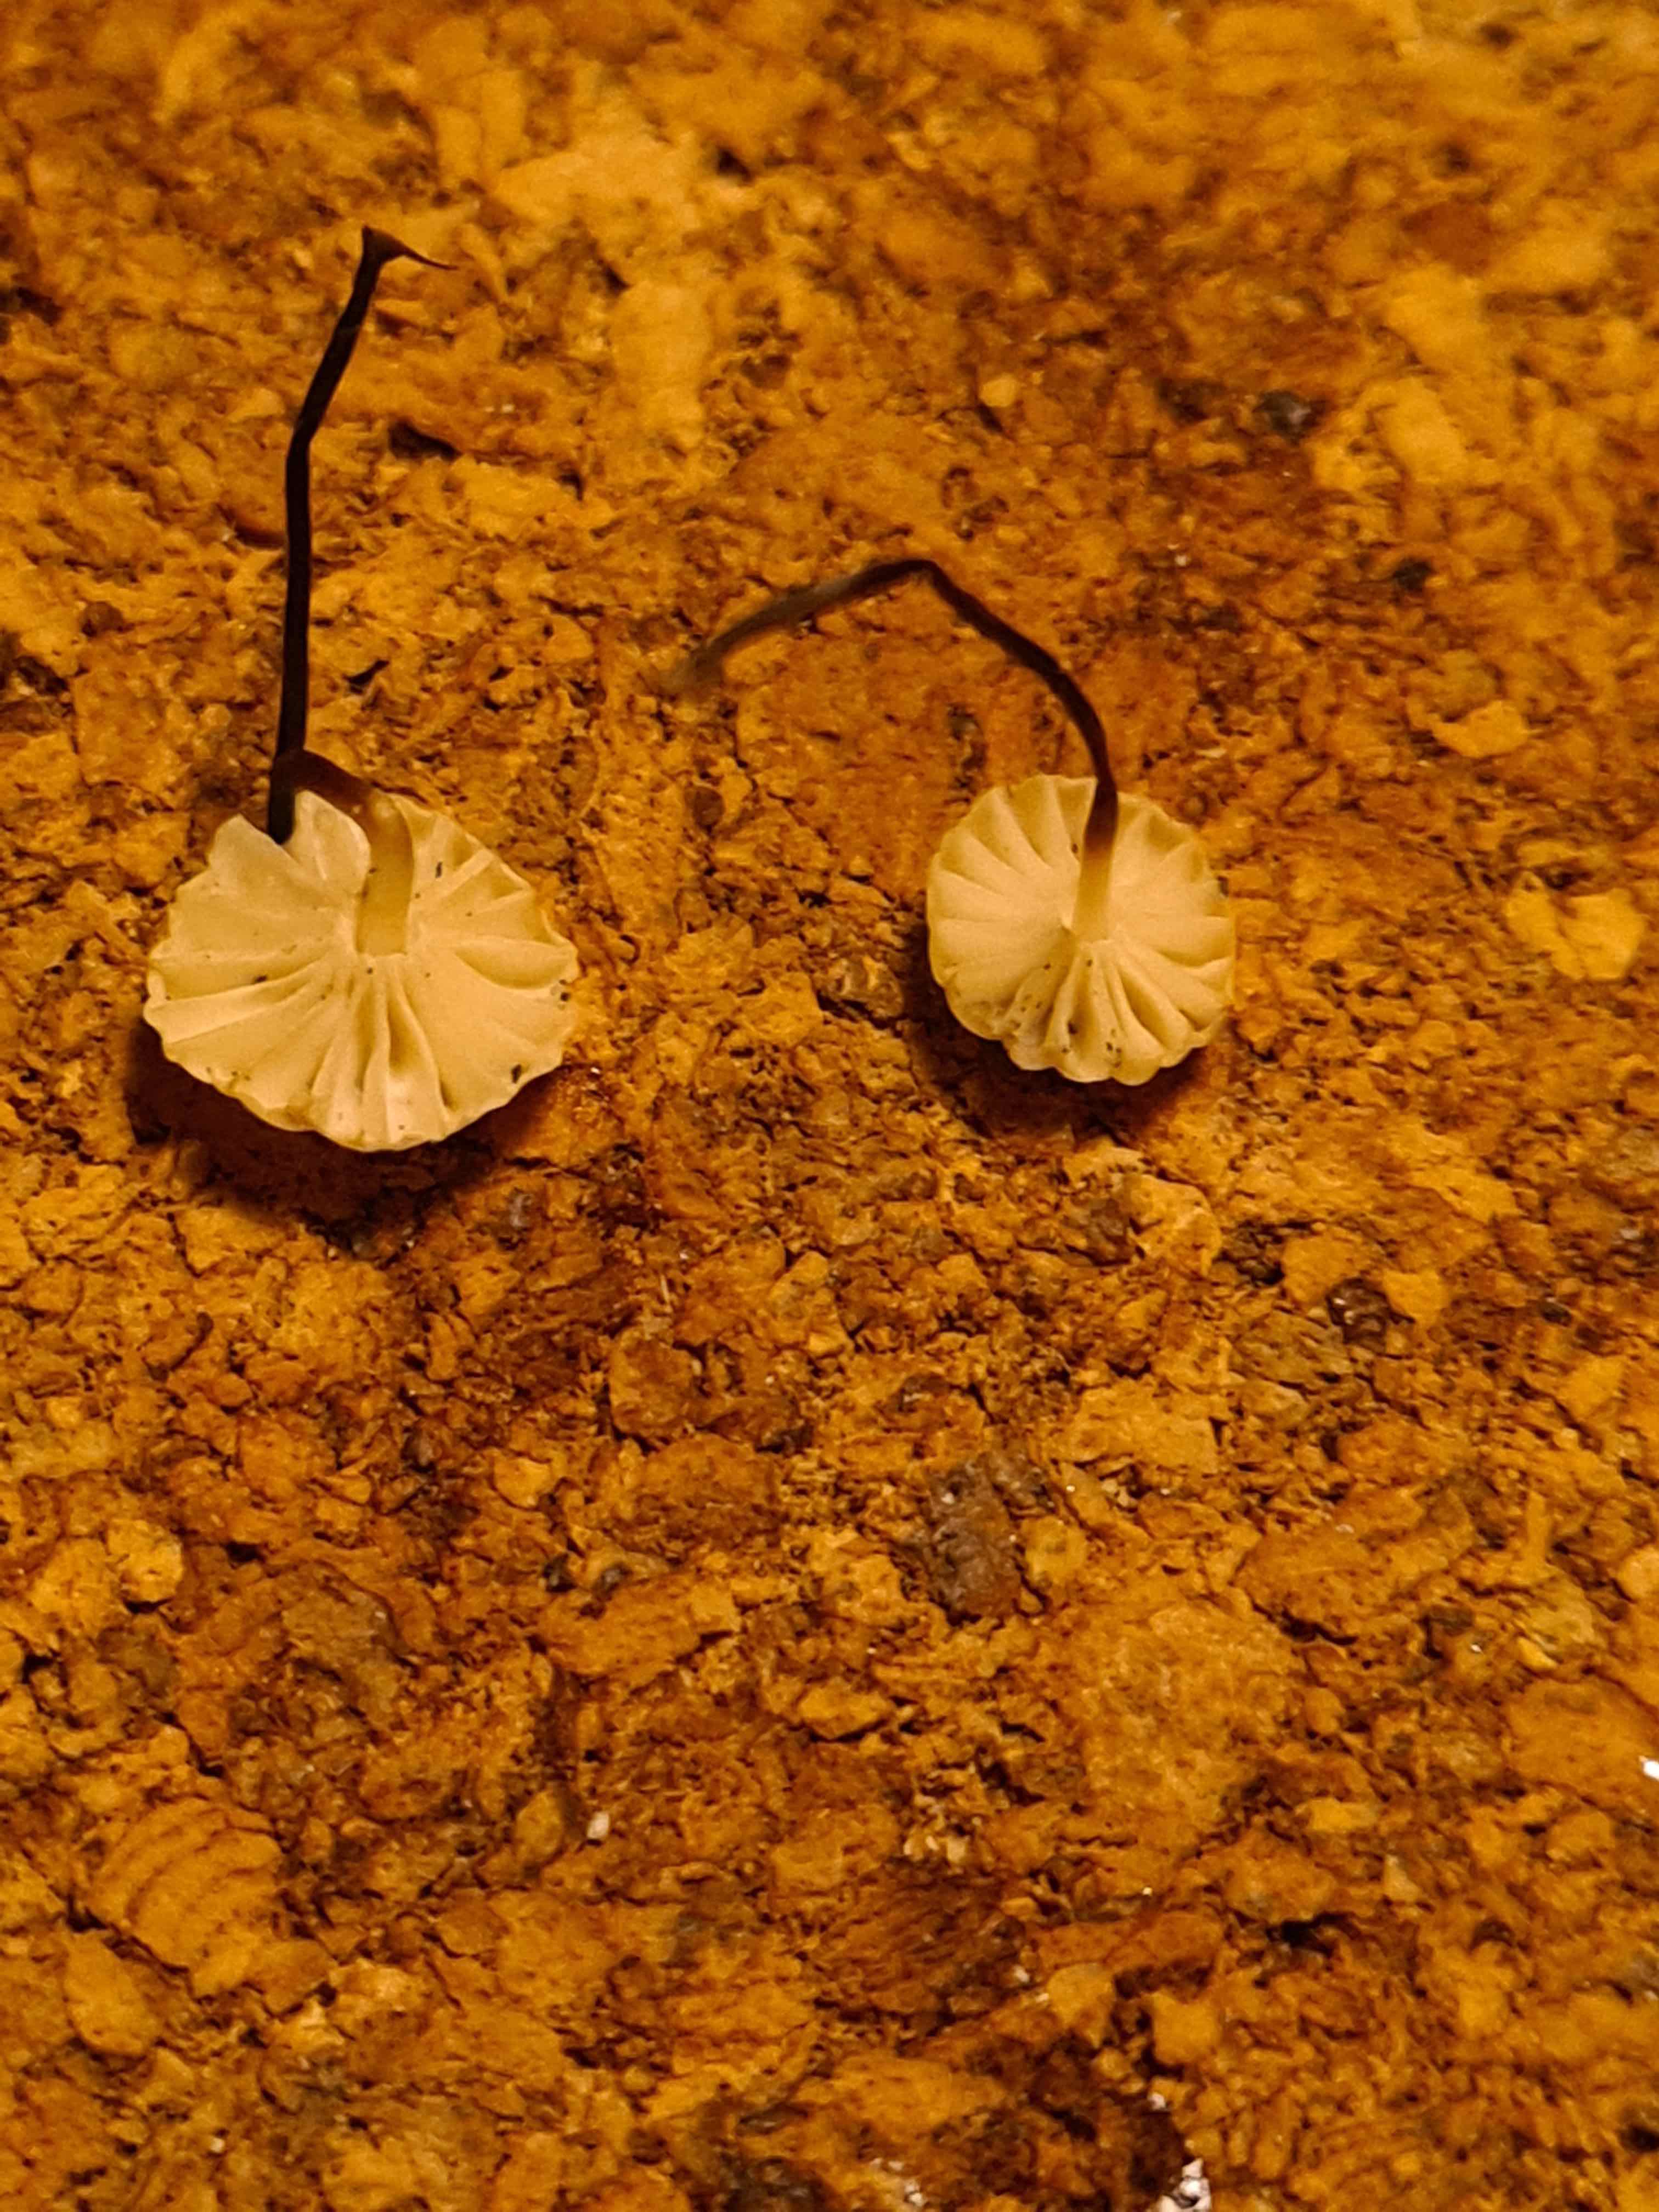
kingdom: Fungi
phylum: Basidiomycota
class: Agaricomycetes
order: Agaricales
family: Marasmiaceae
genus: Marasmius
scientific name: Marasmius rotula
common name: hjul-bruskhat
